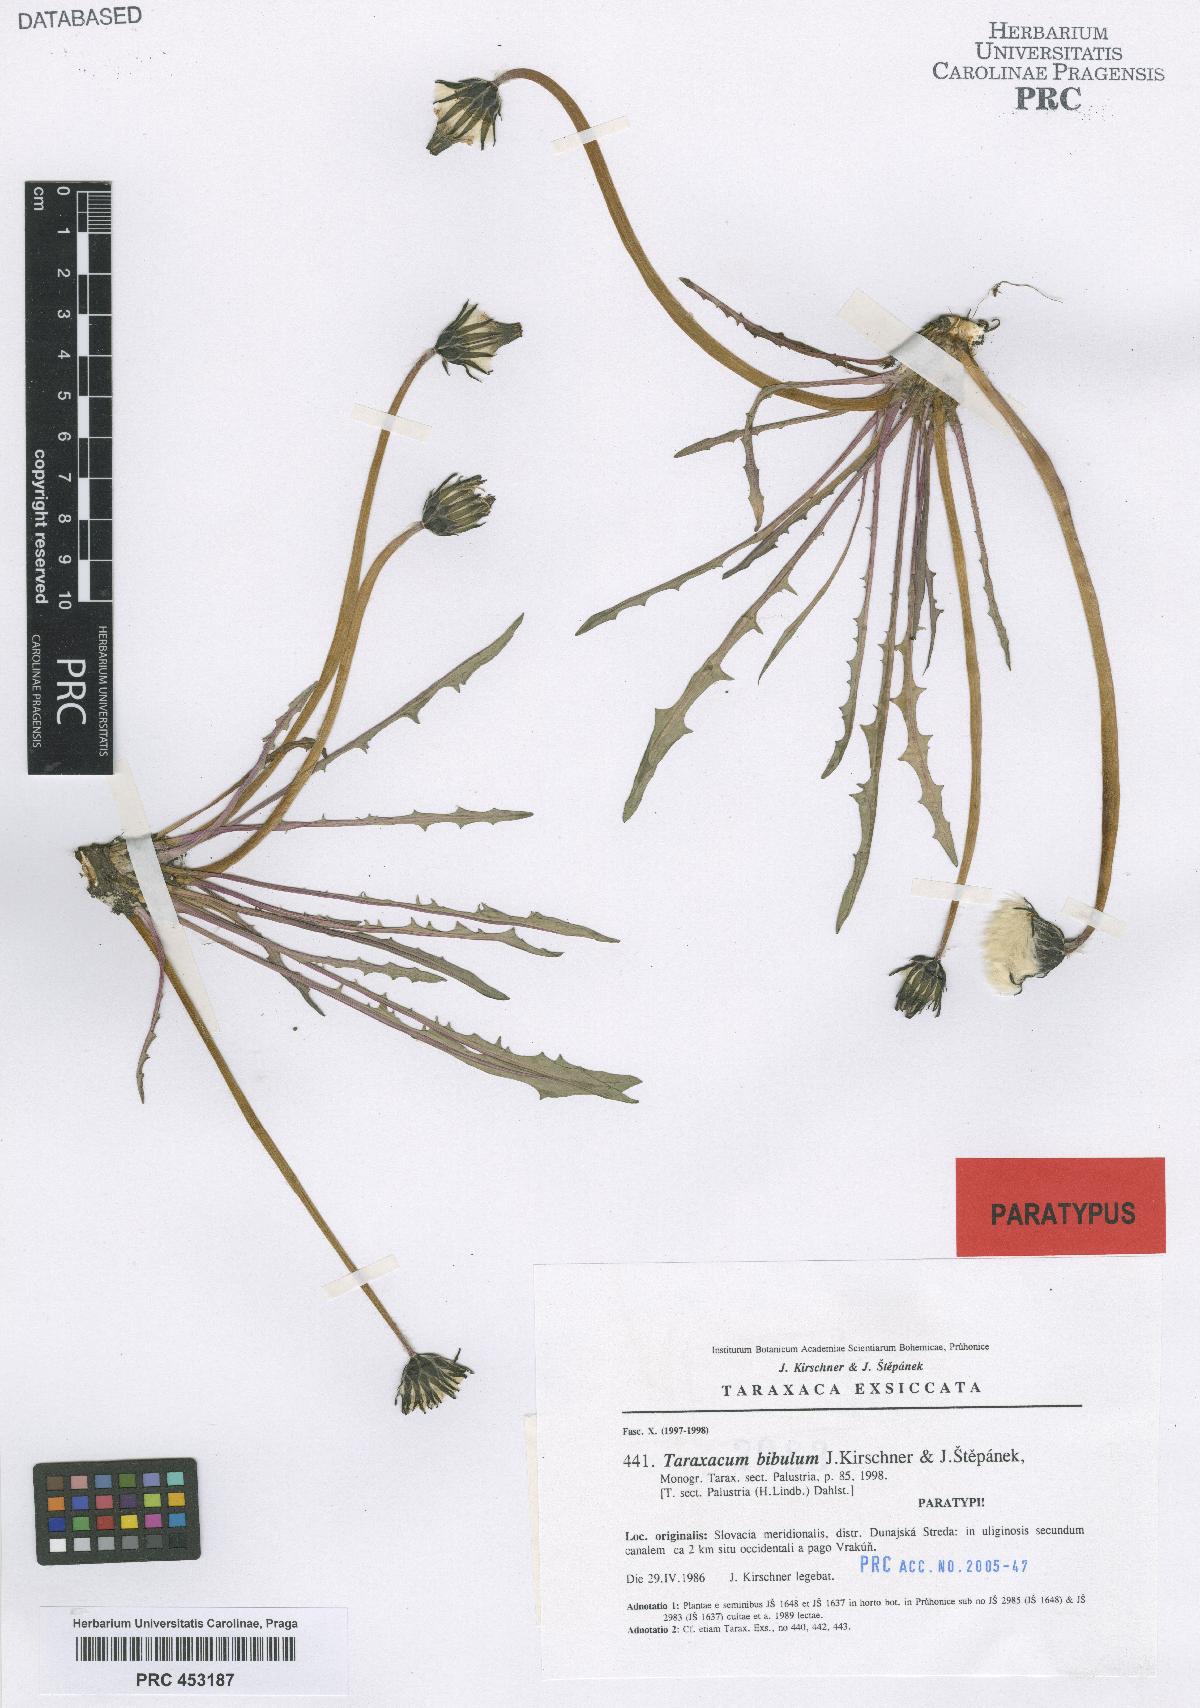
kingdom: Plantae
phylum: Tracheophyta
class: Magnoliopsida
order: Asterales
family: Asteraceae
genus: Taraxacum
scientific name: Taraxacum bibulum
